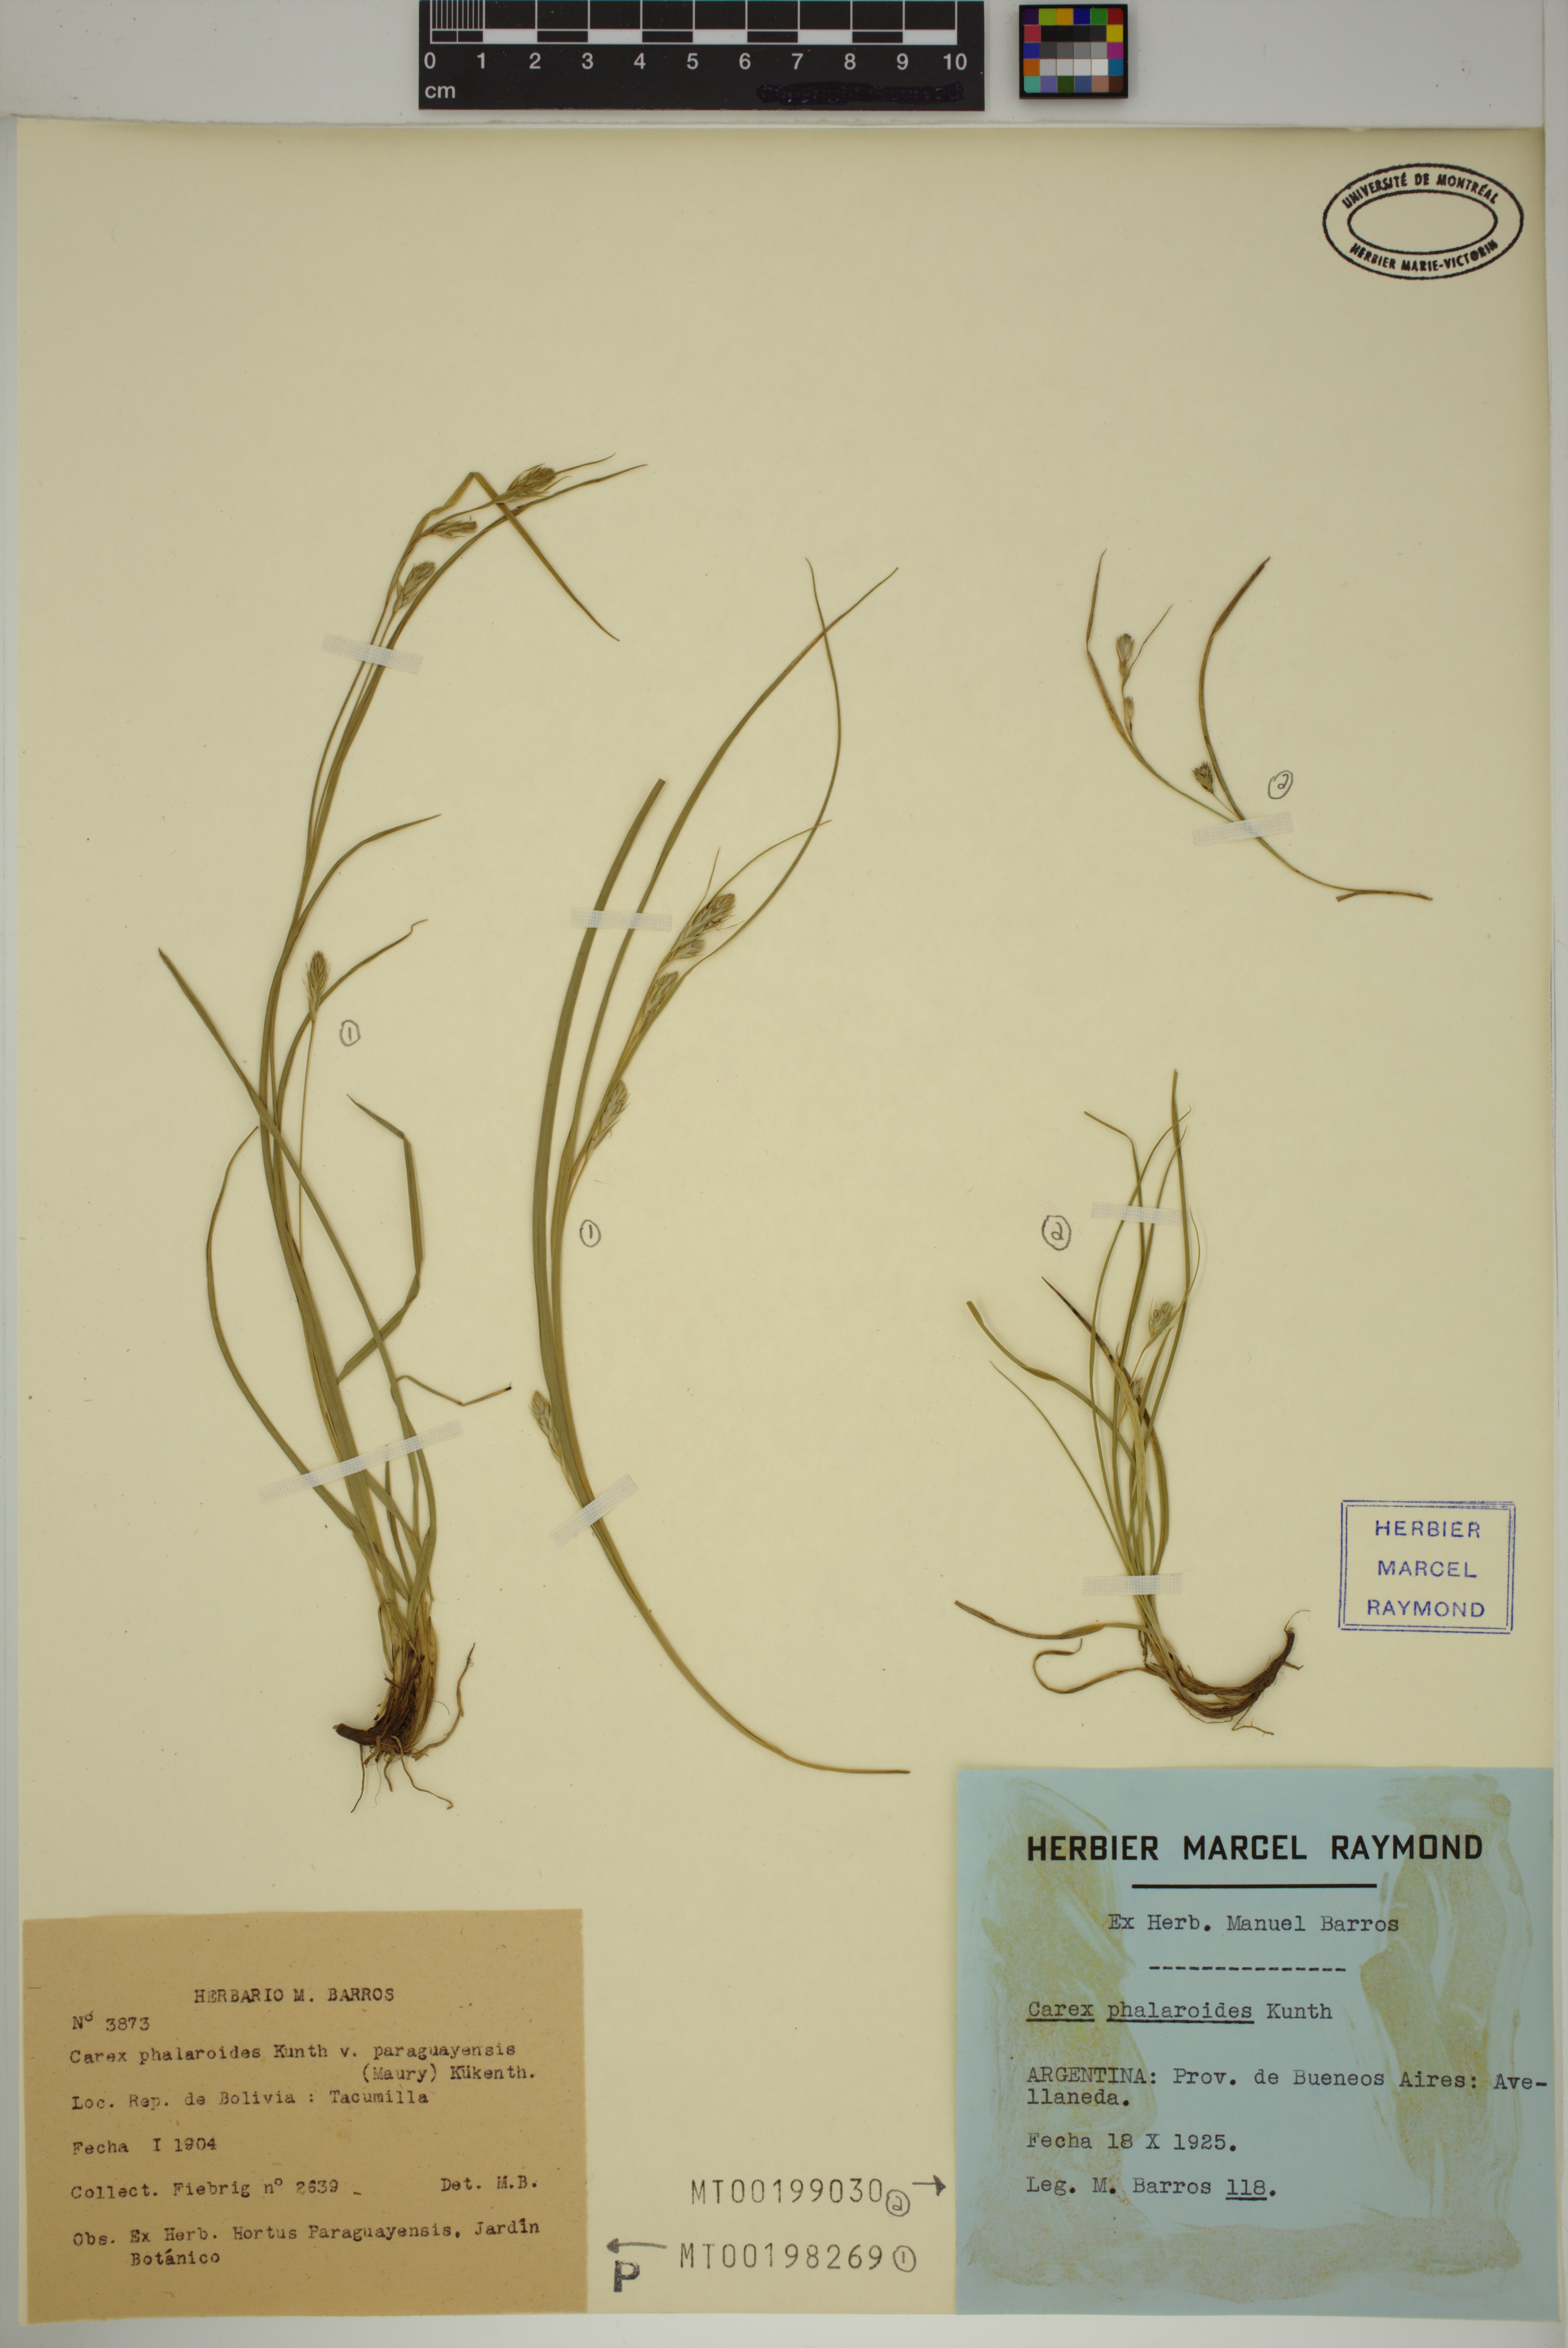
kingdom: Plantae
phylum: Tracheophyta
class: Liliopsida
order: Poales
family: Cyperaceae
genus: Carex
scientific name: Carex phalaroides
